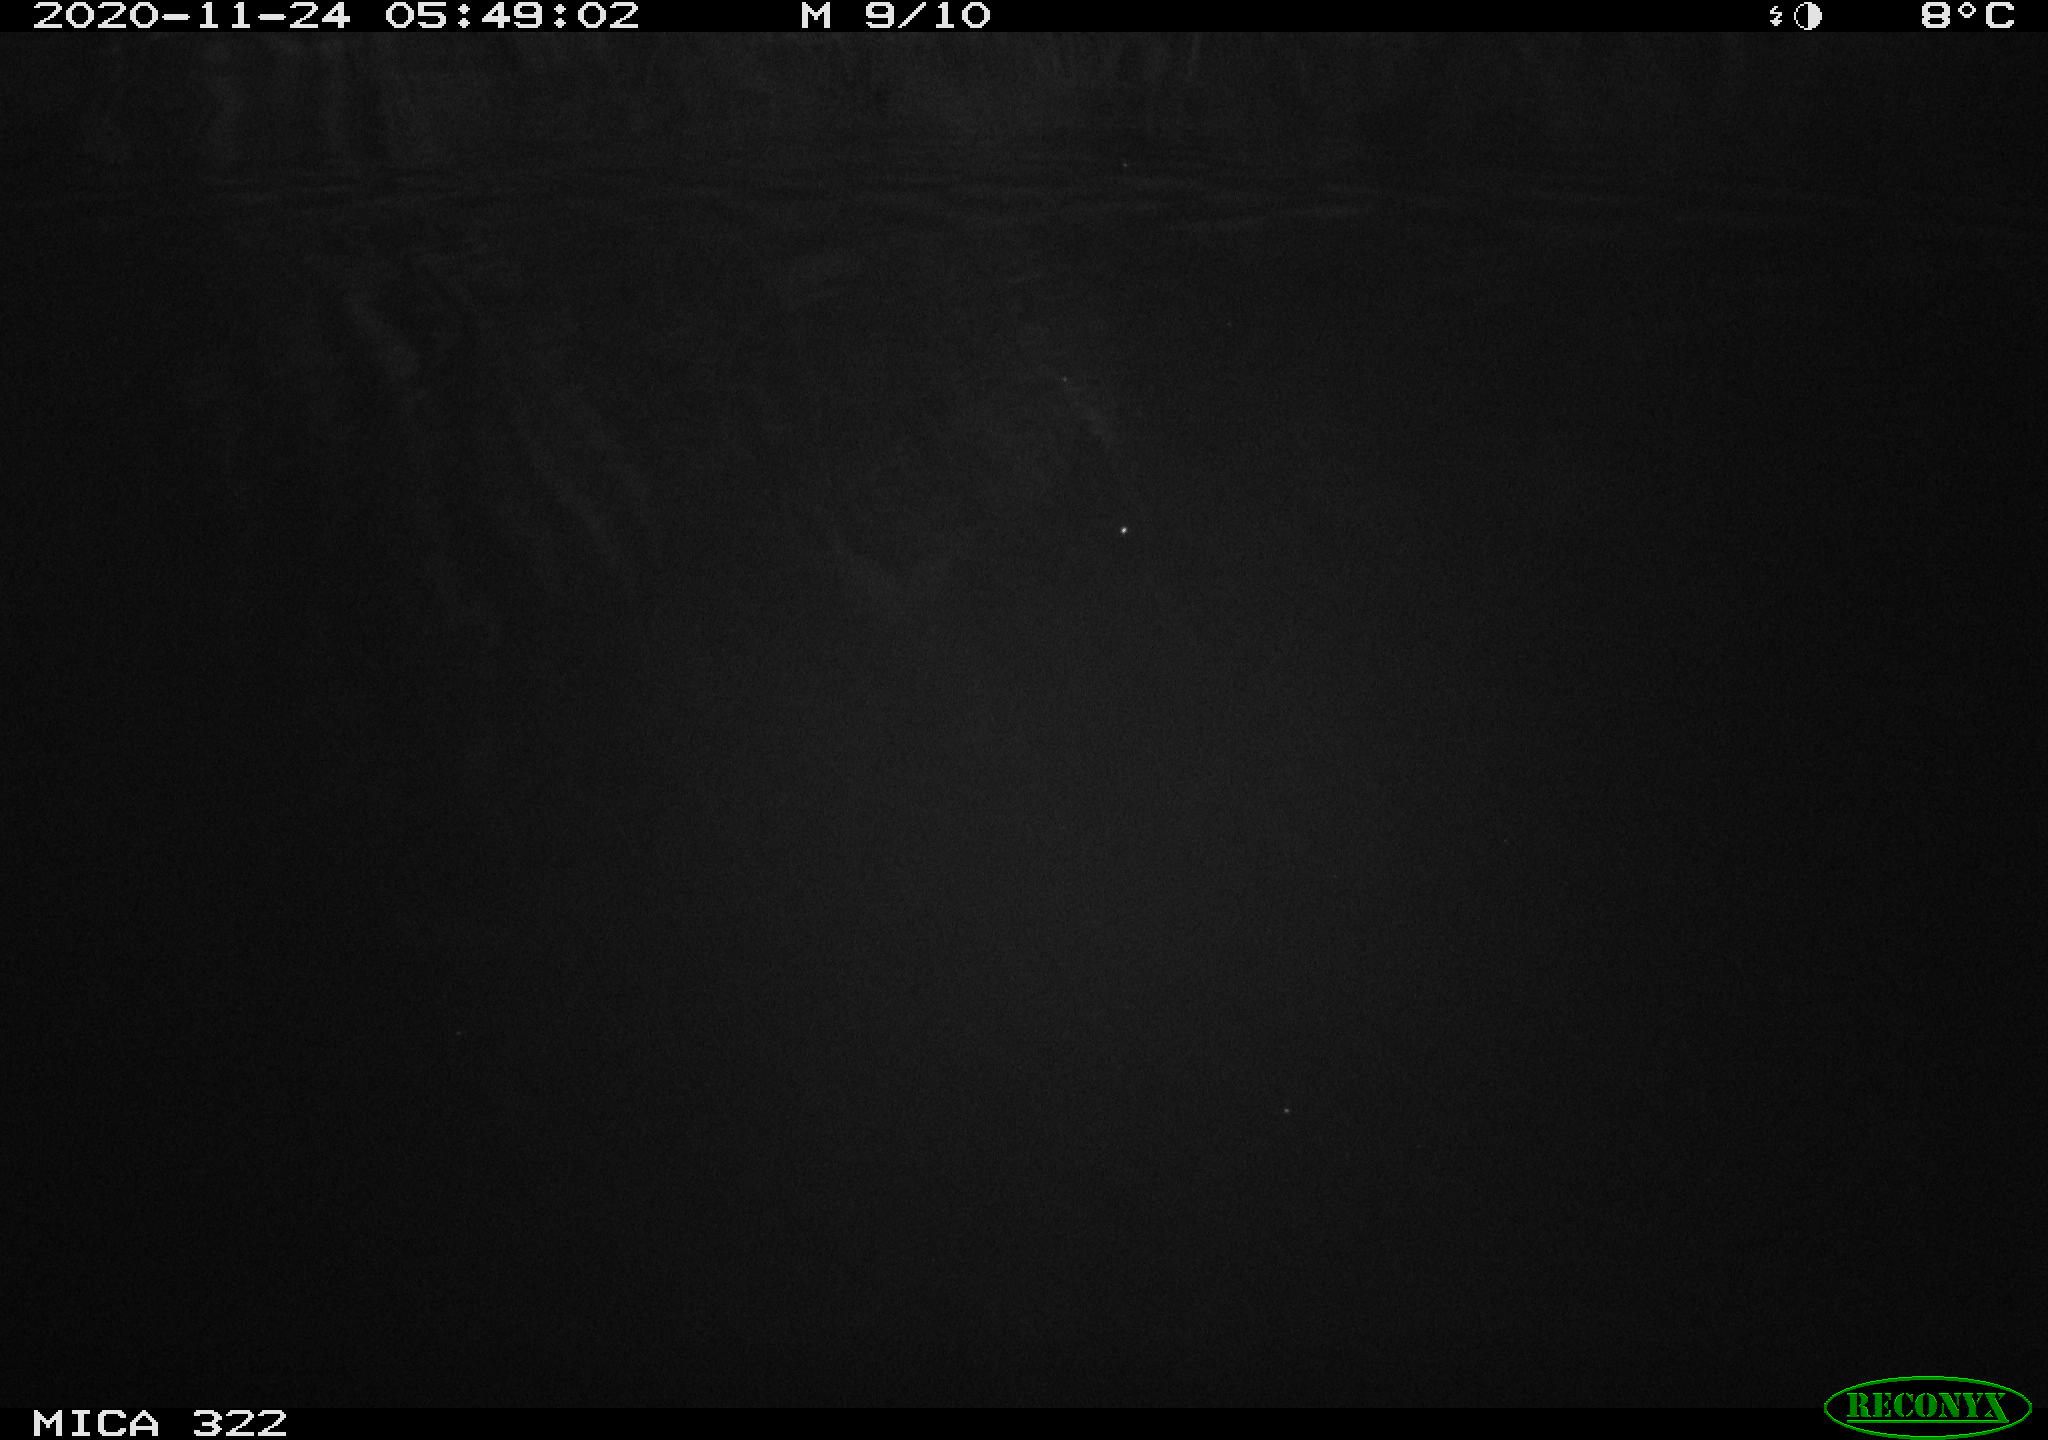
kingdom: Animalia
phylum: Chordata
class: Mammalia
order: Rodentia
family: Muridae
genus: Rattus
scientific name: Rattus norvegicus
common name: Brown rat
